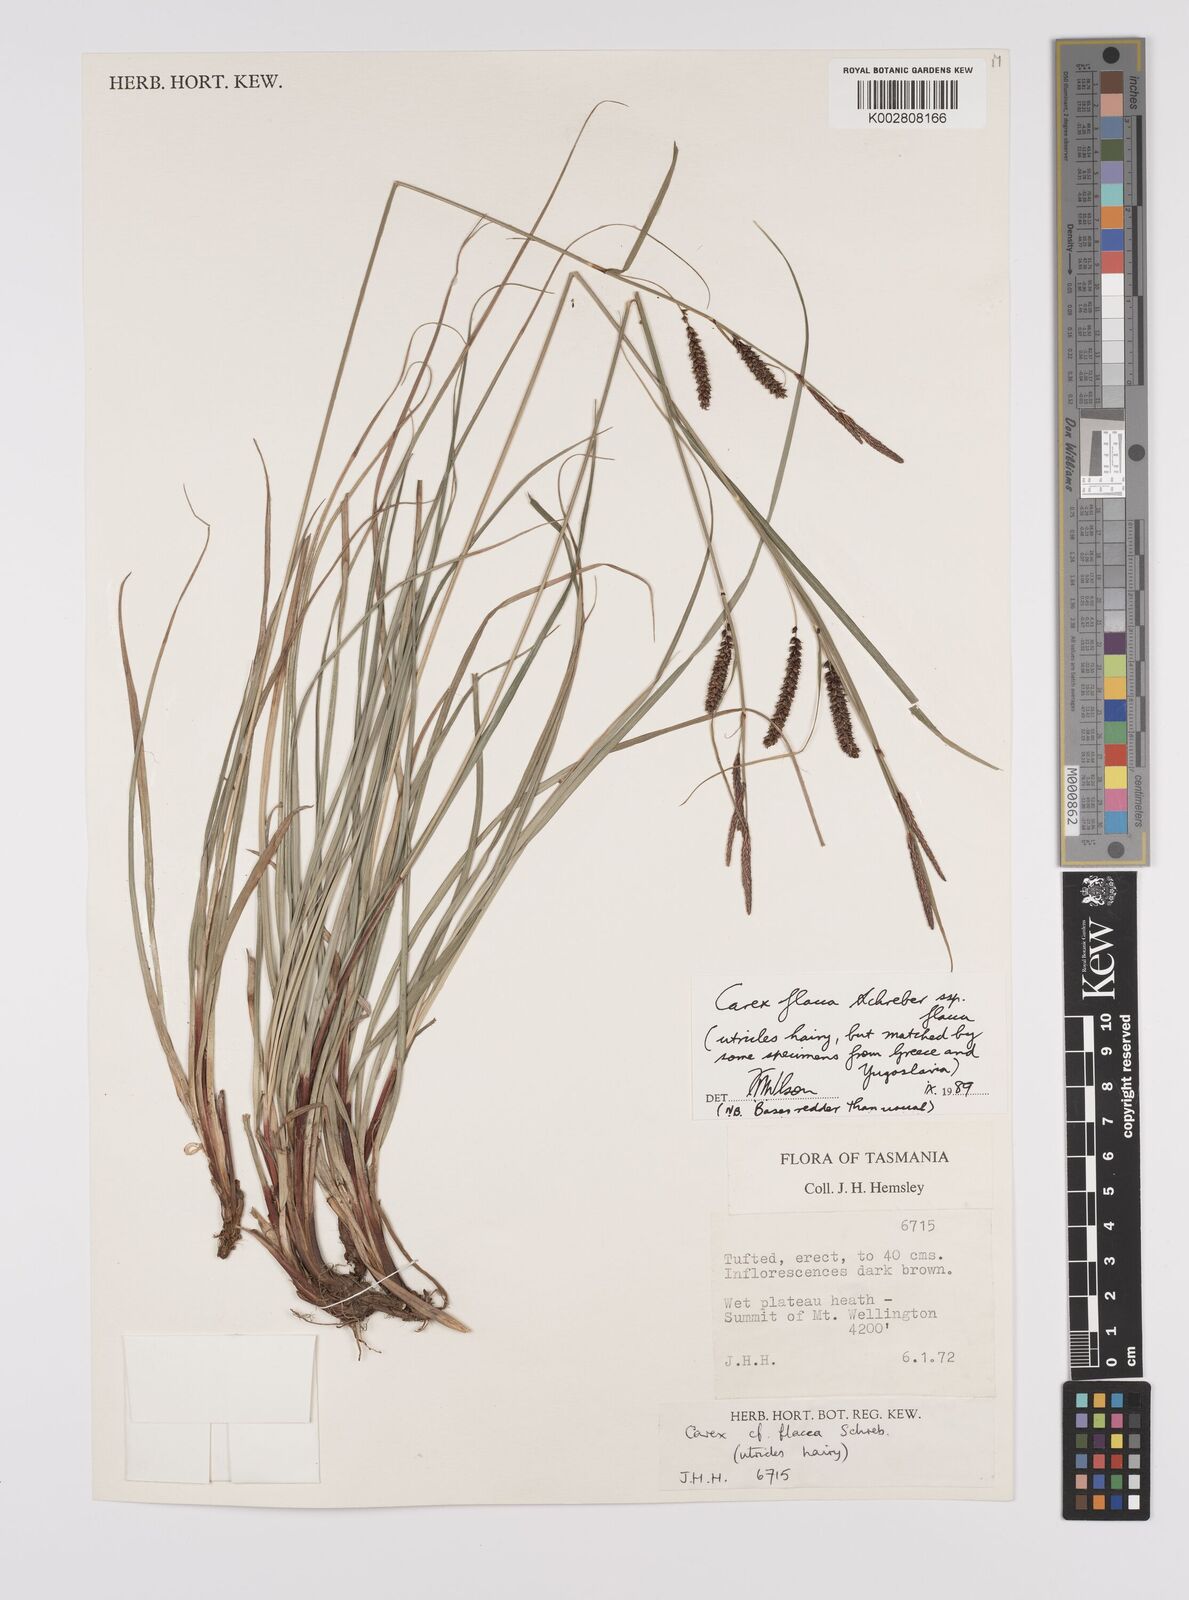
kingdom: Plantae
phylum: Tracheophyta
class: Liliopsida
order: Poales
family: Cyperaceae
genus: Carex
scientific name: Carex flacca
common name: Glaucous sedge
